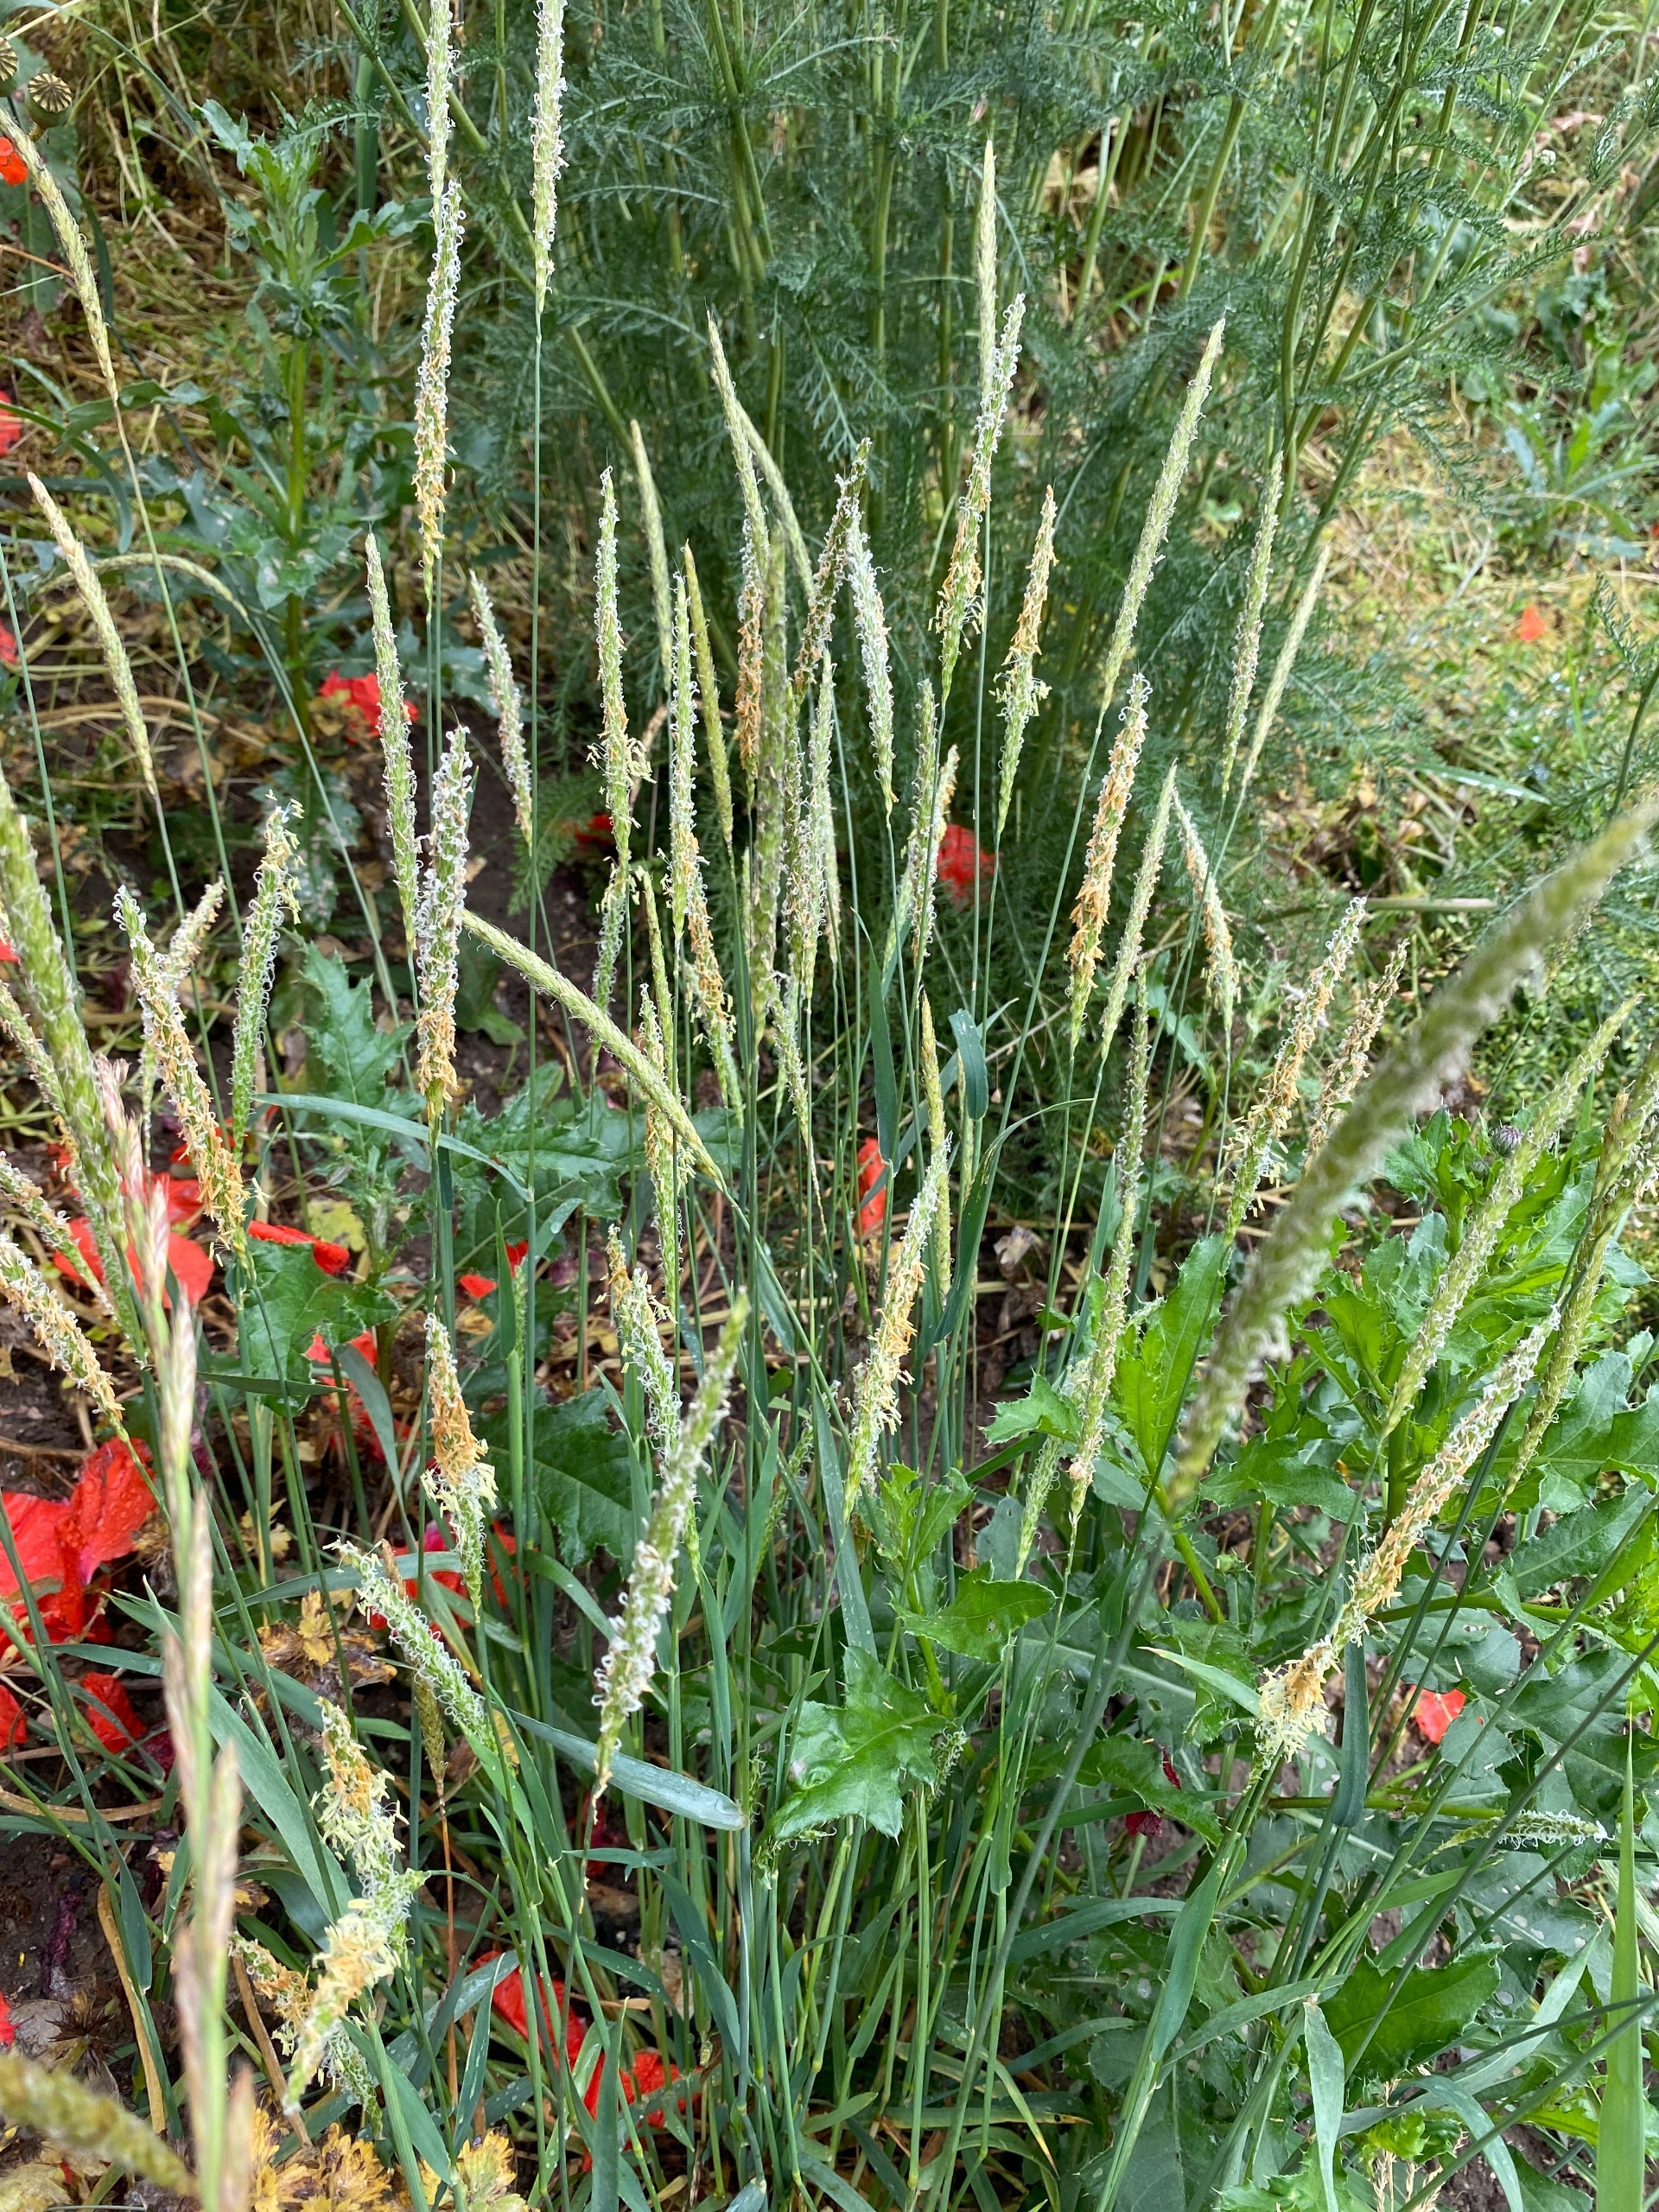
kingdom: Plantae
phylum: Tracheophyta
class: Liliopsida
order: Poales
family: Poaceae
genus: Alopecurus
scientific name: Alopecurus myosuroides
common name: Ager-rævehale
